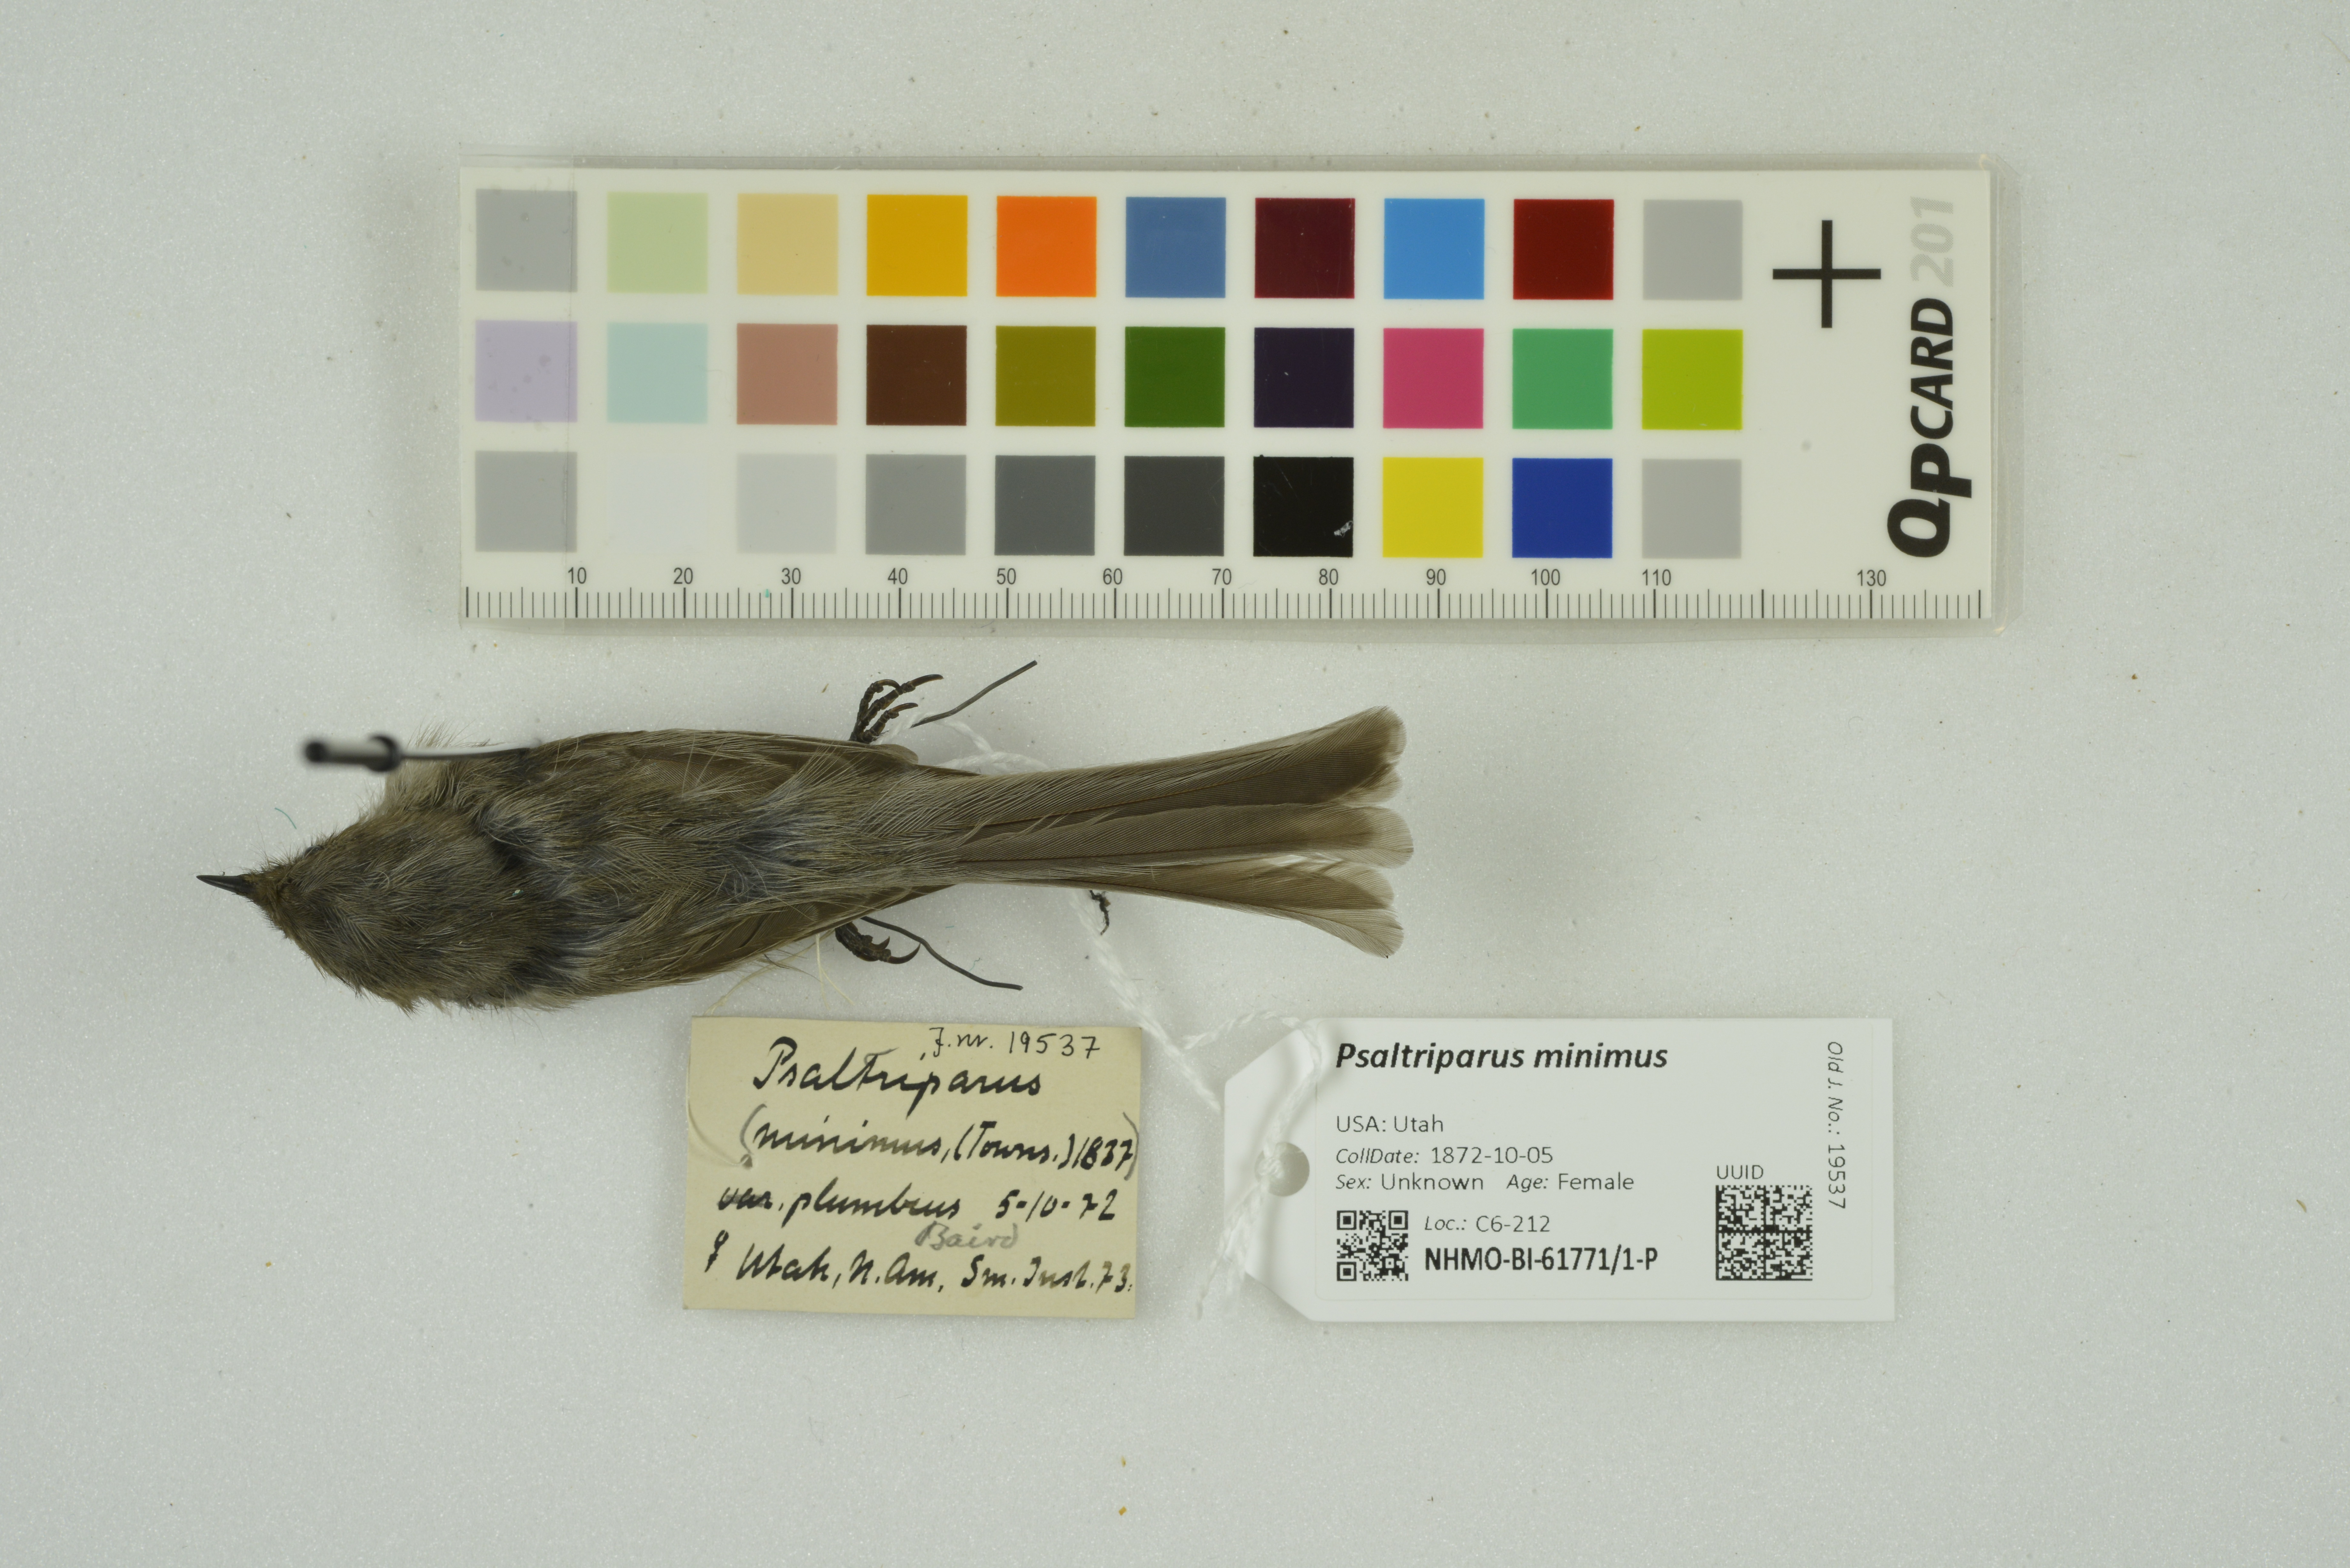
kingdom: Animalia
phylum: Chordata
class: Aves
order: Passeriformes
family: Aegithalidae
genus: Psaltriparus
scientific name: Psaltriparus minimus
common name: American bushtit
